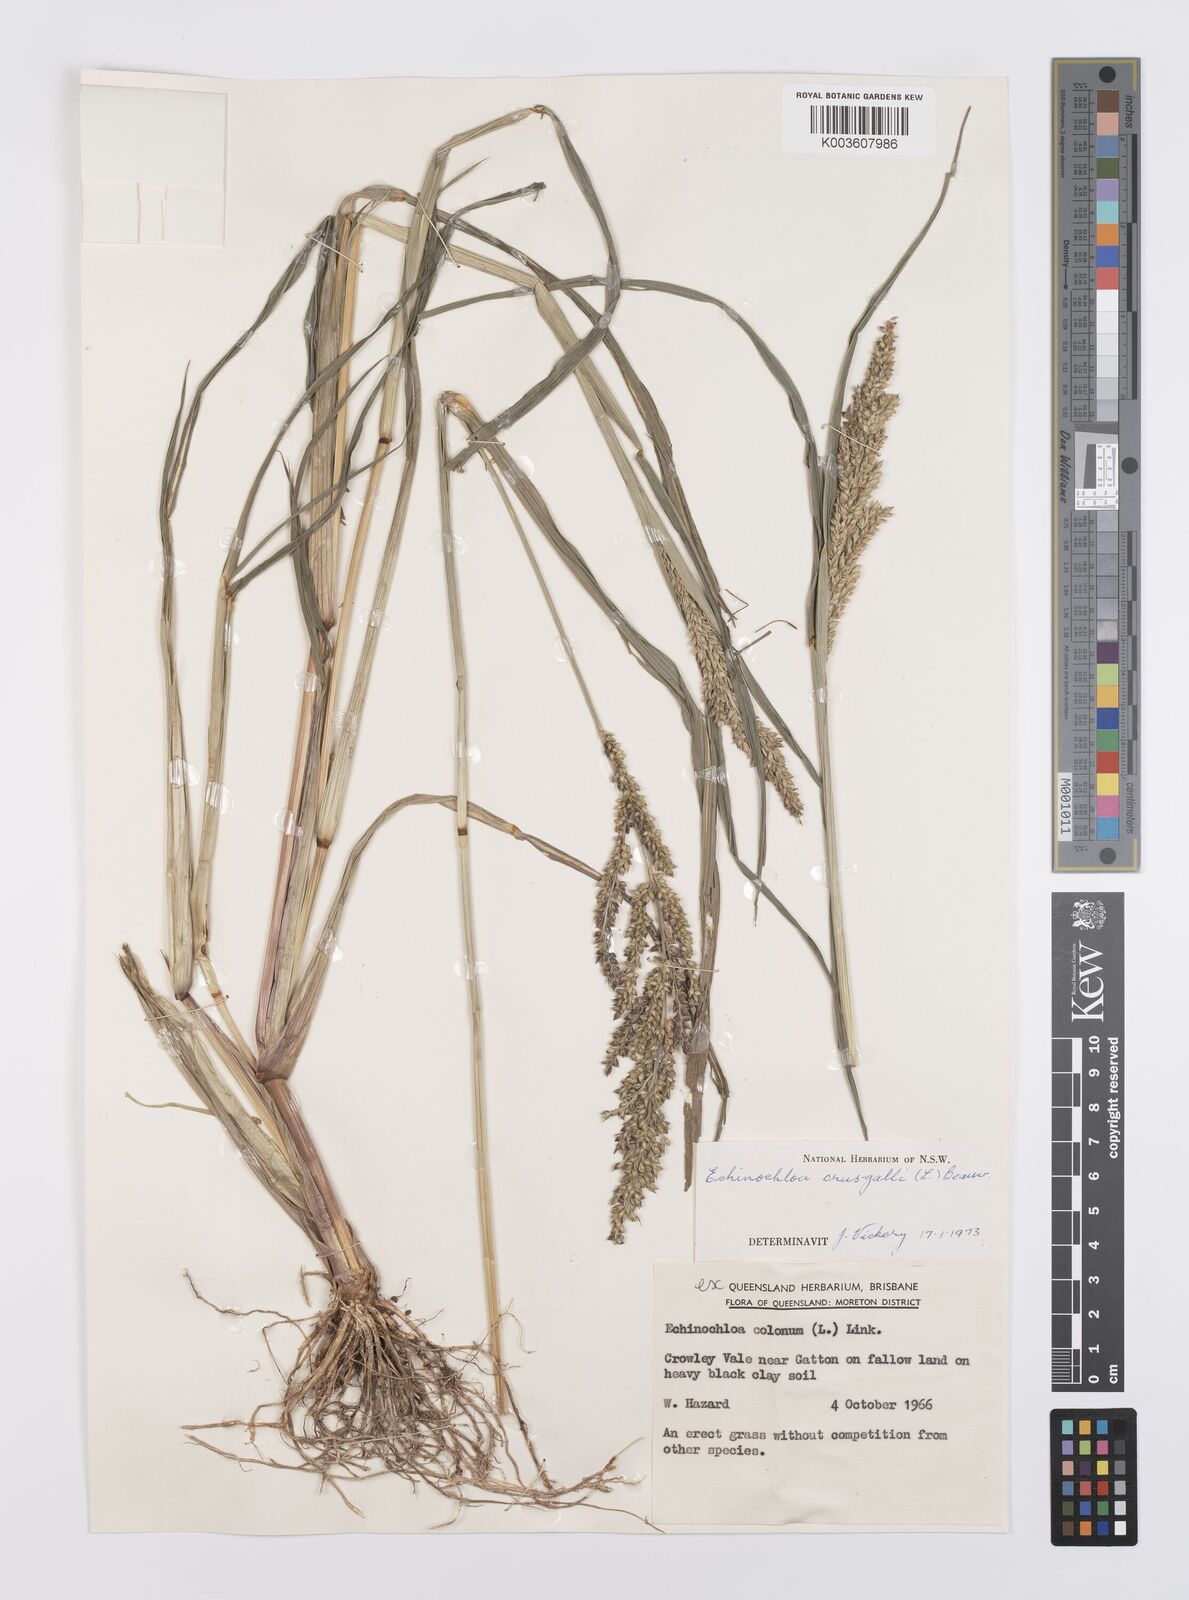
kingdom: Plantae
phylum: Tracheophyta
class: Liliopsida
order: Poales
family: Poaceae
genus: Echinochloa
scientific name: Echinochloa crus-galli
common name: Cockspur
